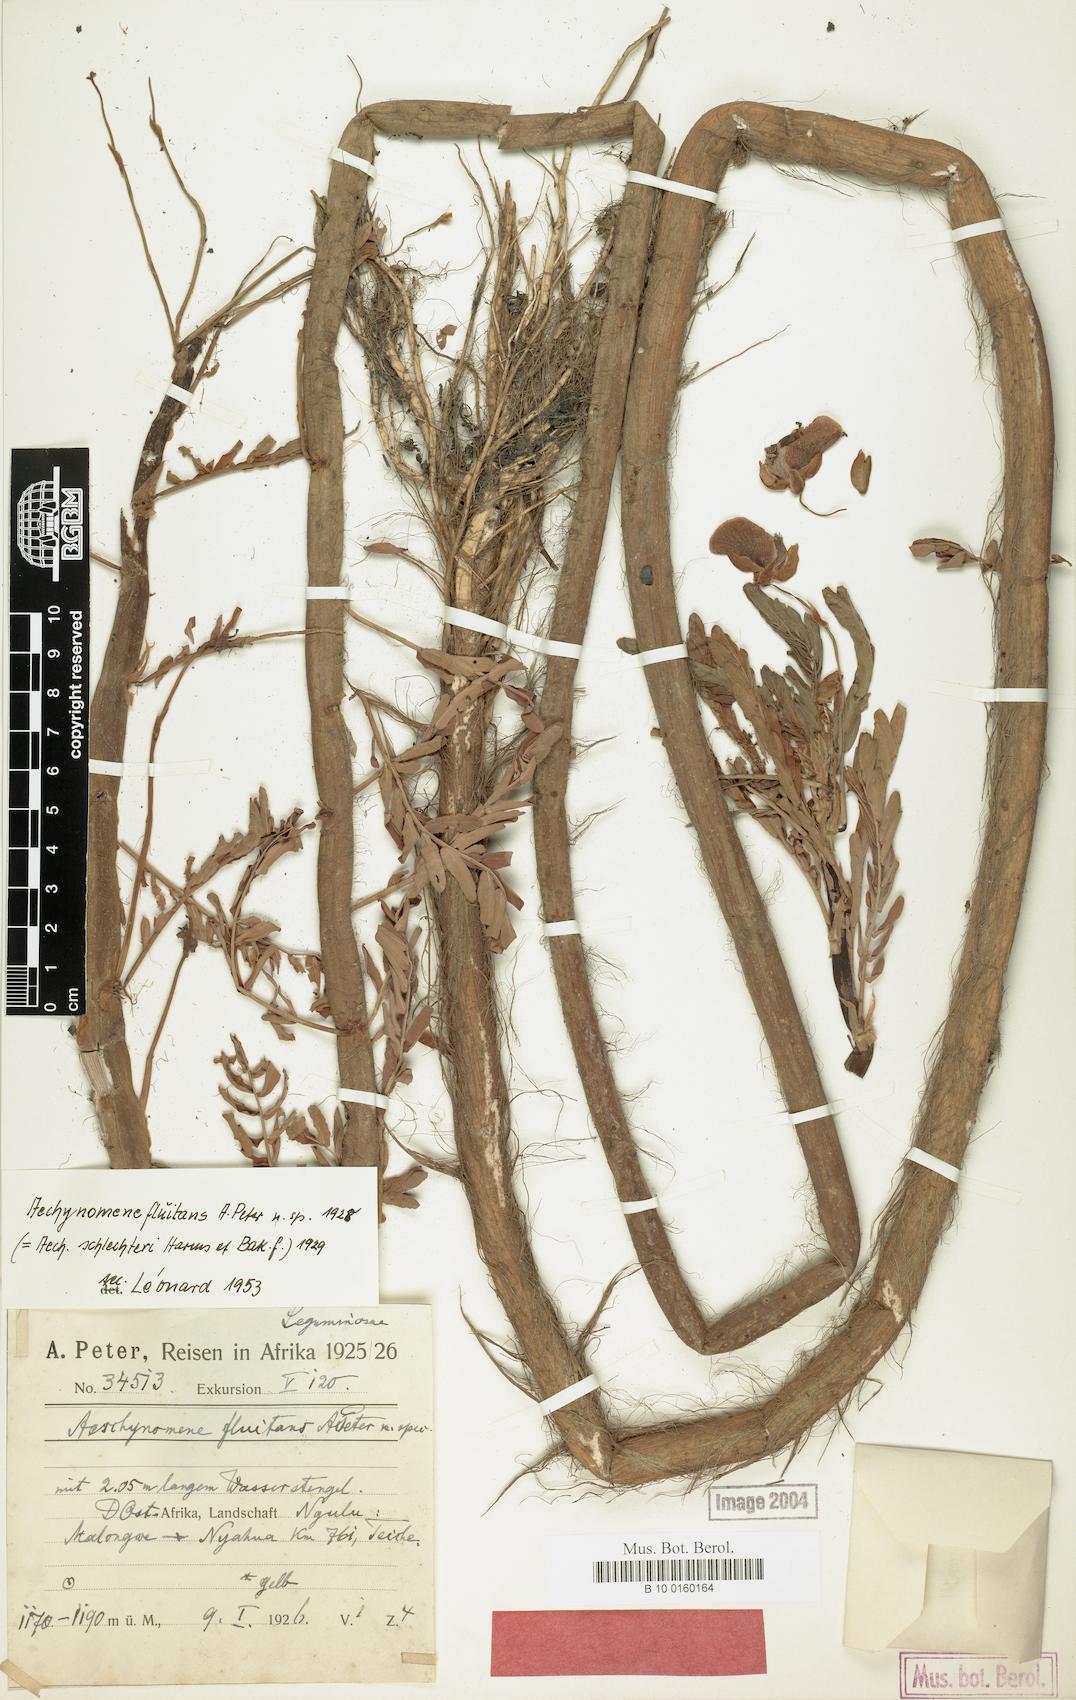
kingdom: Plantae
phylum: Tracheophyta
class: Magnoliopsida
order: Fabales
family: Fabaceae
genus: Aeschynomene
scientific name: Aeschynomene fluitans
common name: Giant water sensitive plant
